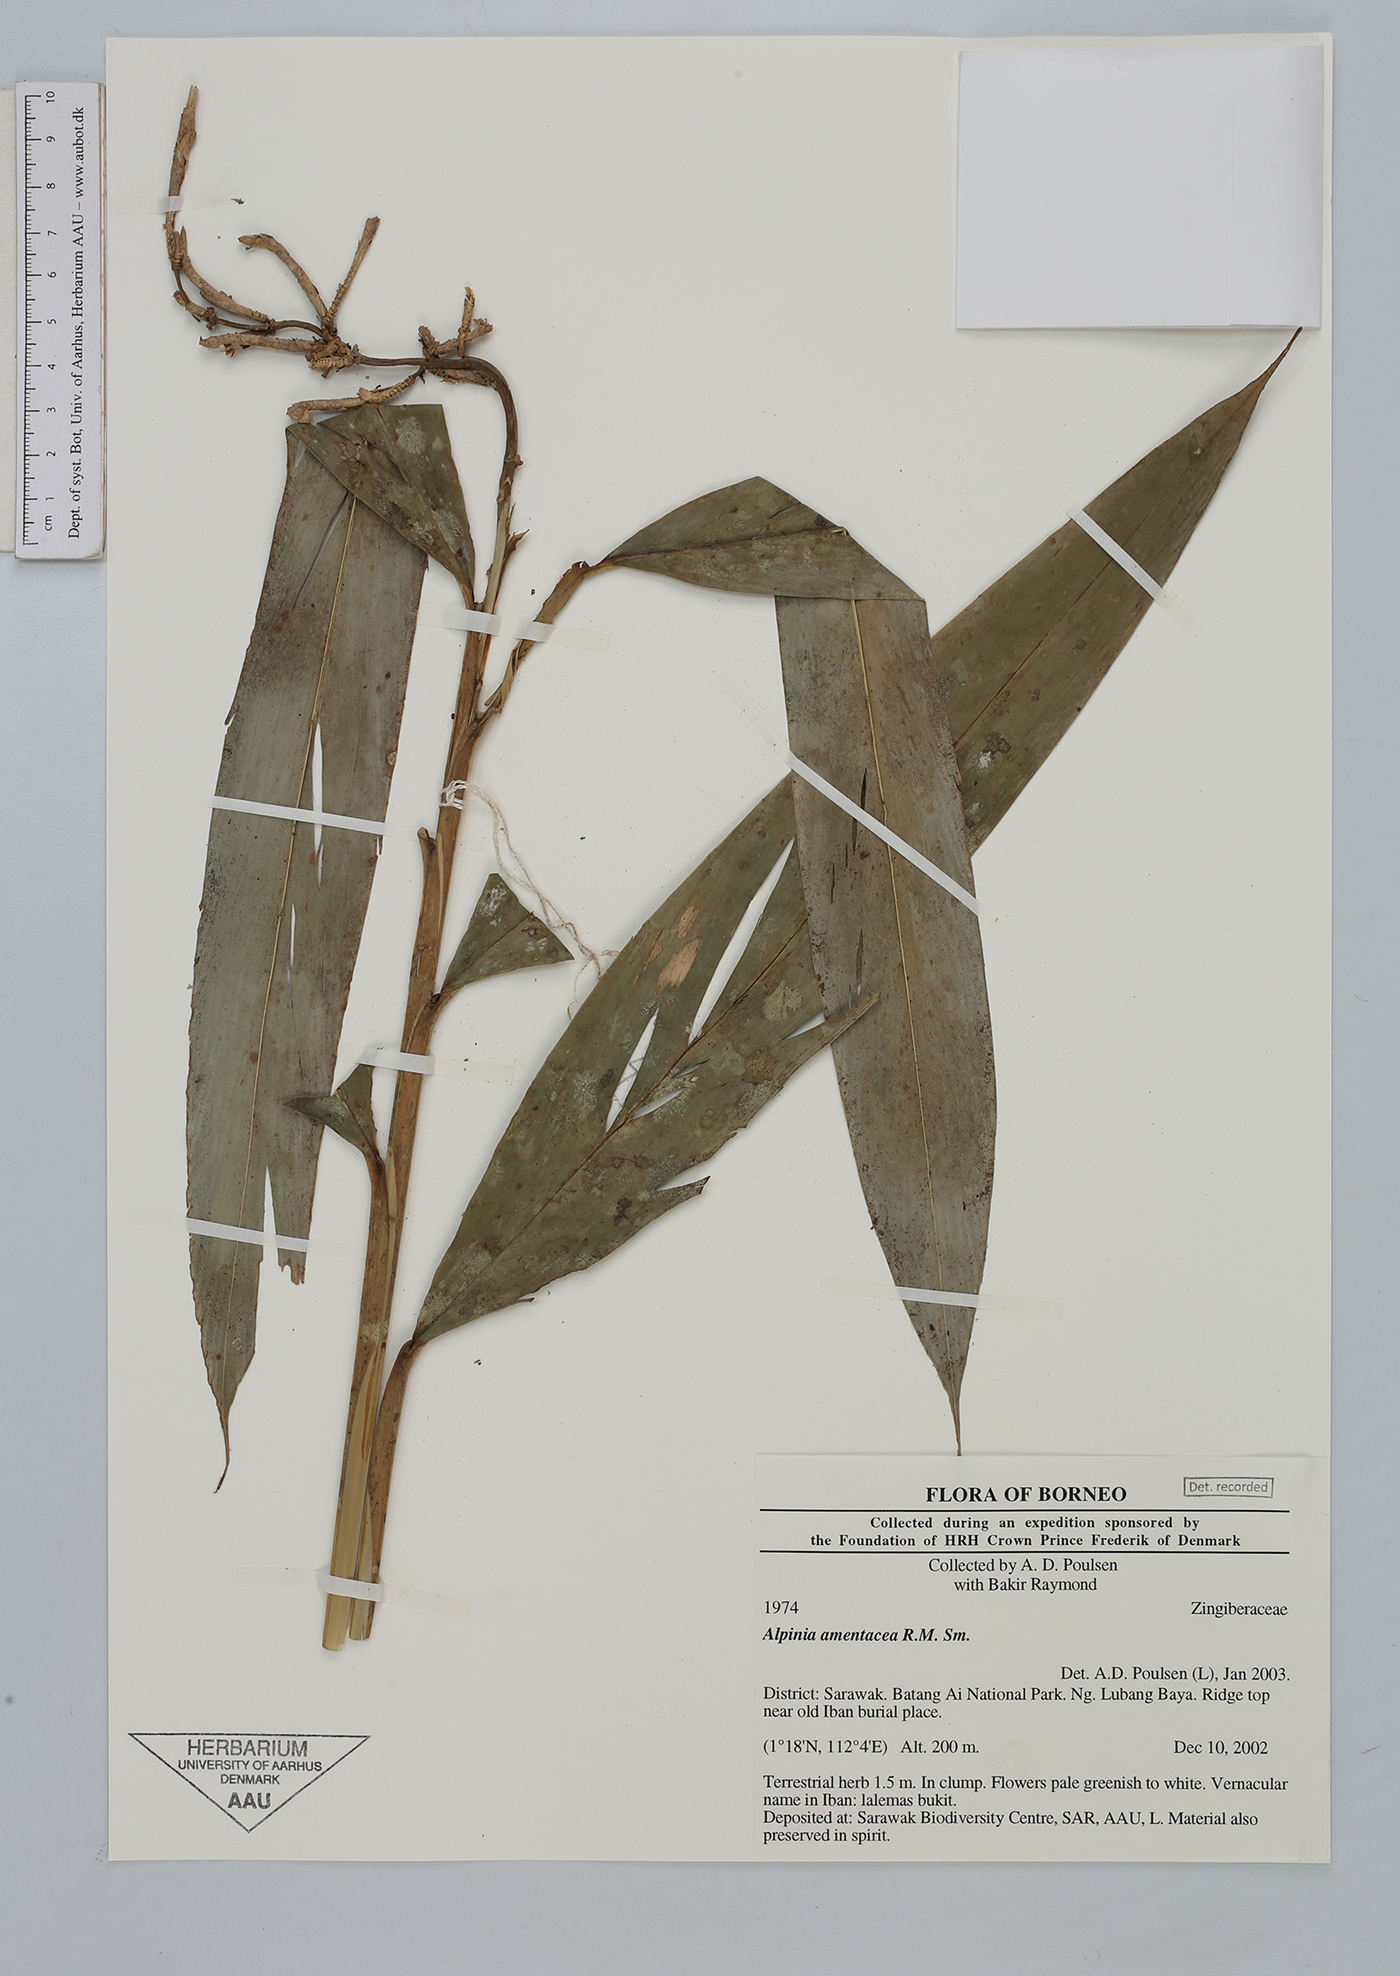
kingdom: Plantae
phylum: Tracheophyta
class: Liliopsida
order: Zingiberales
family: Zingiberaceae
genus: Alpinia
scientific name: Alpinia amentacea
